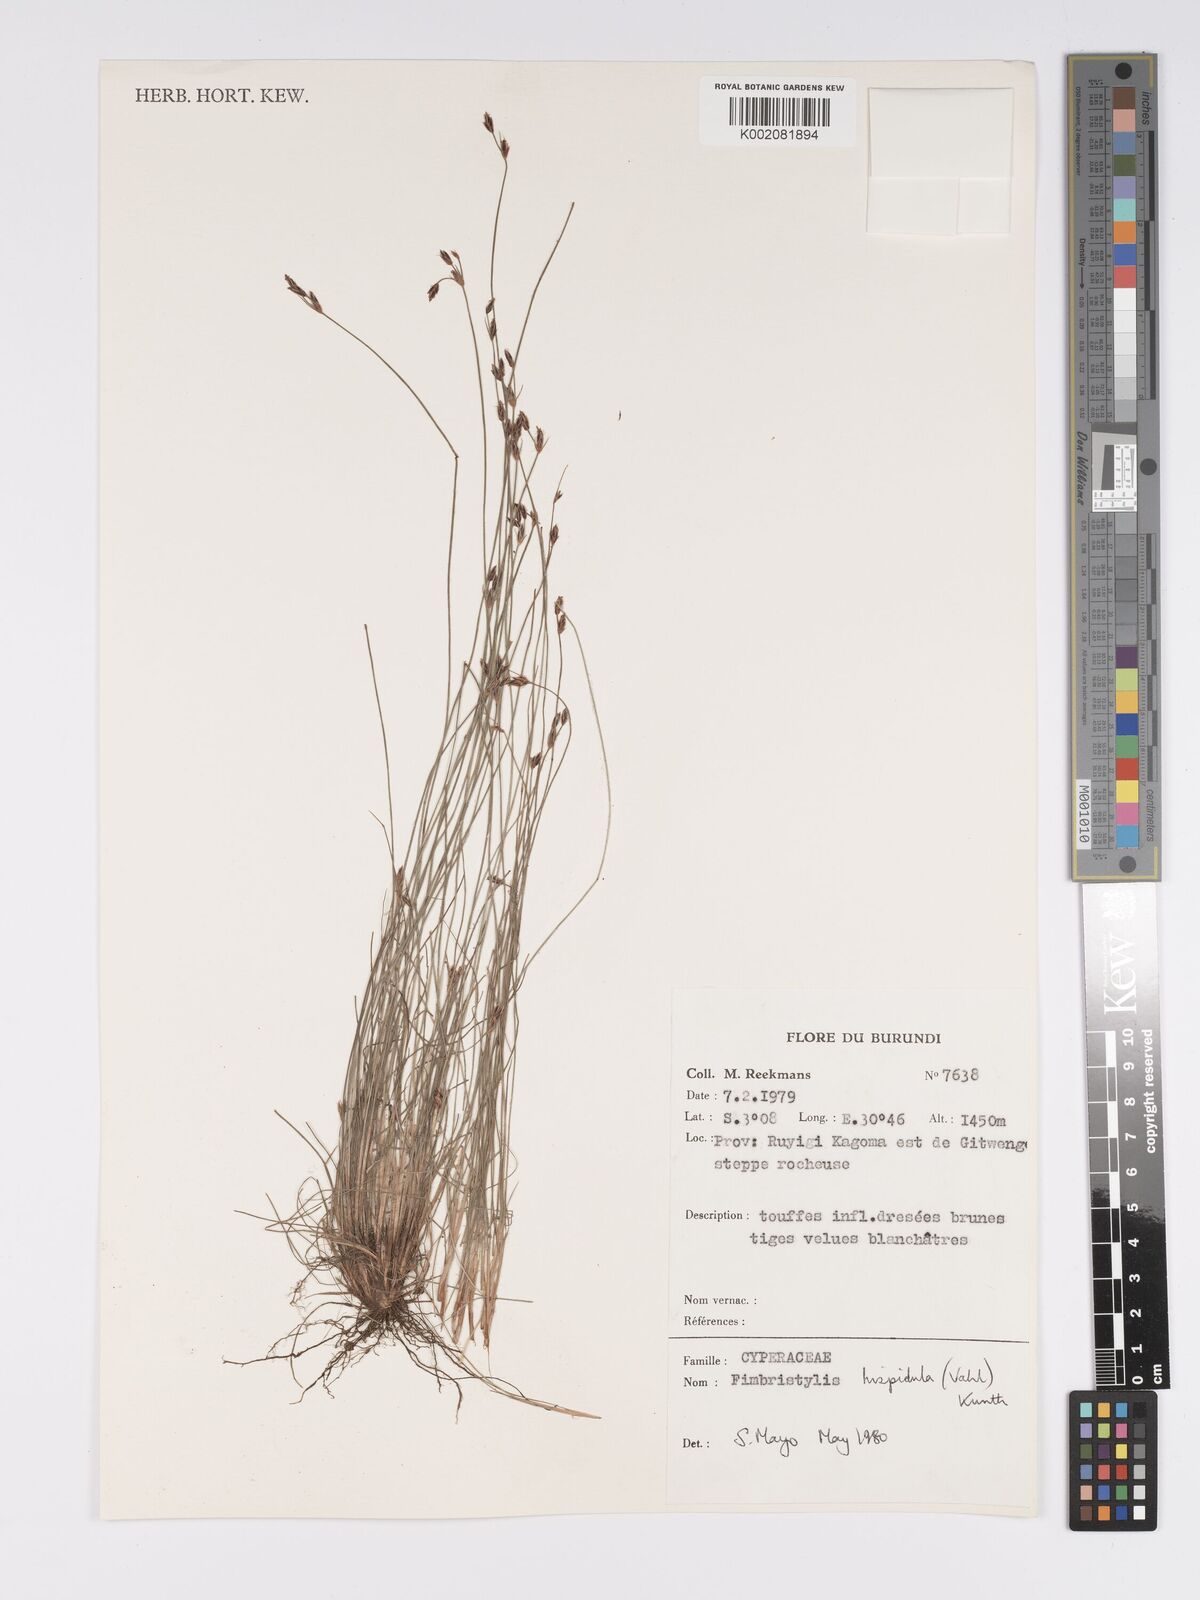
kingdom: Plantae
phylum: Tracheophyta
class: Liliopsida
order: Poales
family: Cyperaceae
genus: Bulbostylis
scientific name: Bulbostylis hispidula
